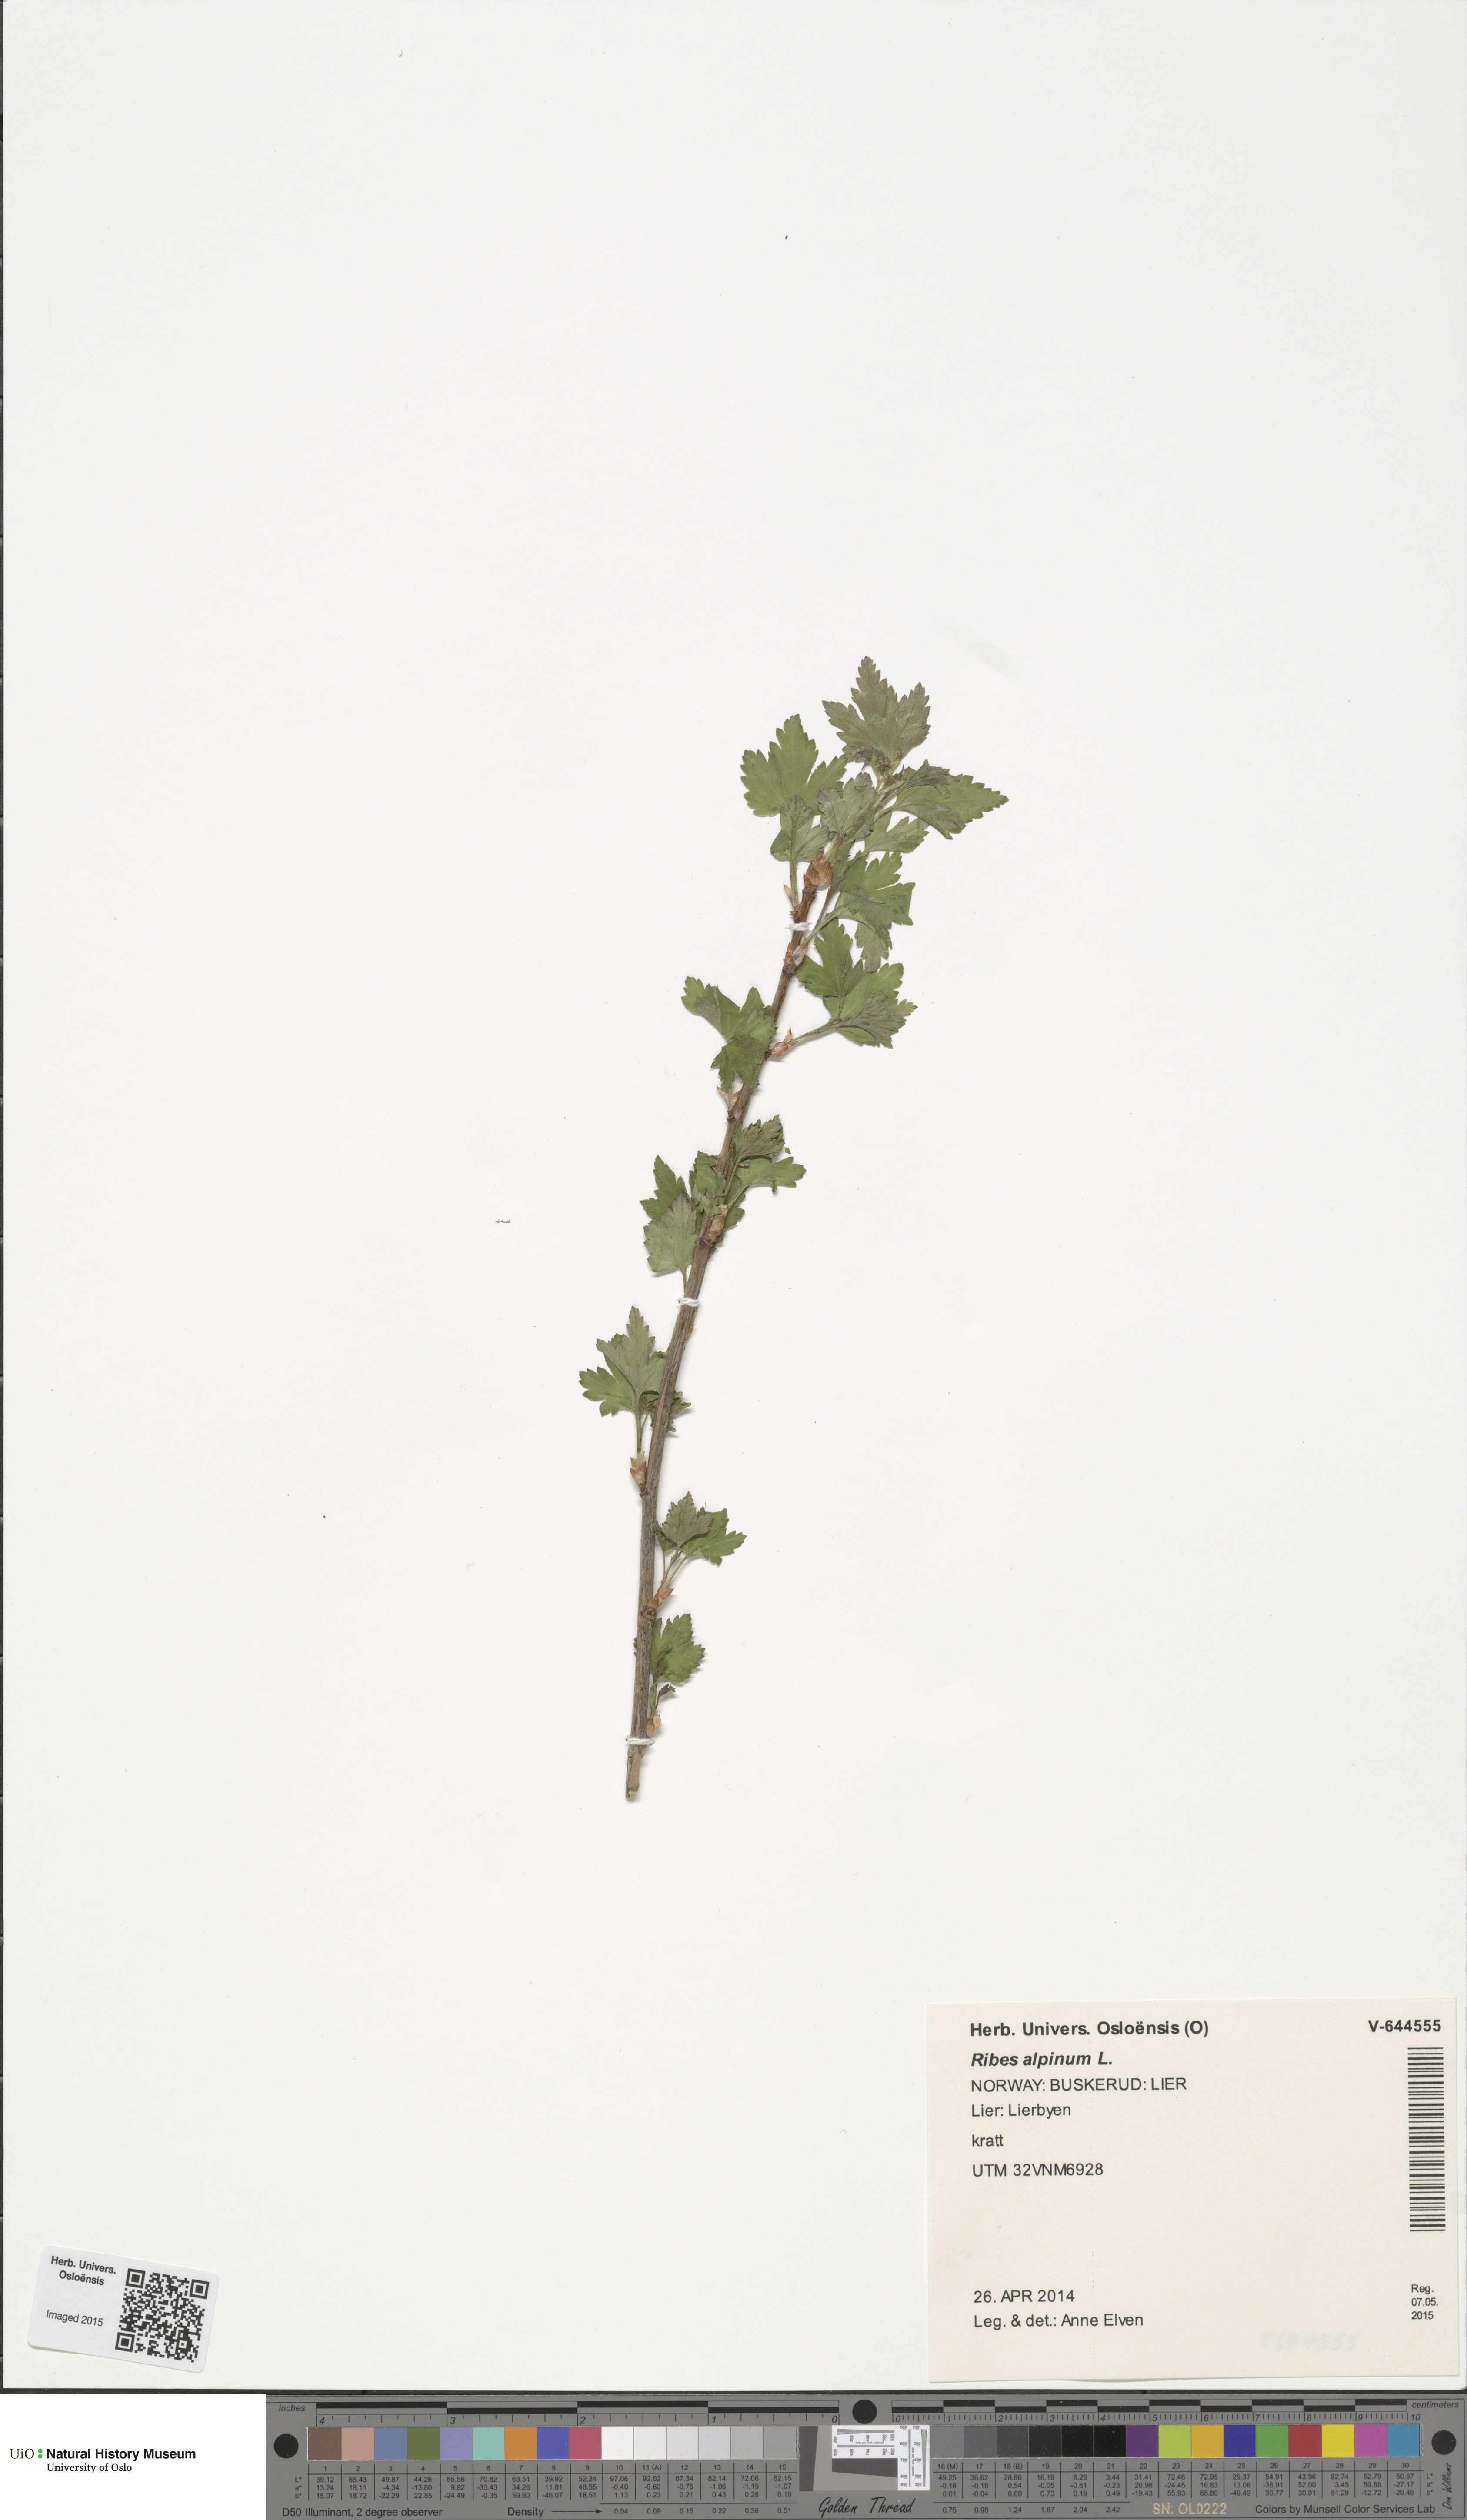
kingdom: Plantae
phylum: Tracheophyta
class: Magnoliopsida
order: Saxifragales
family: Grossulariaceae
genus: Ribes
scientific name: Ribes alpinum
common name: Alpine currant
